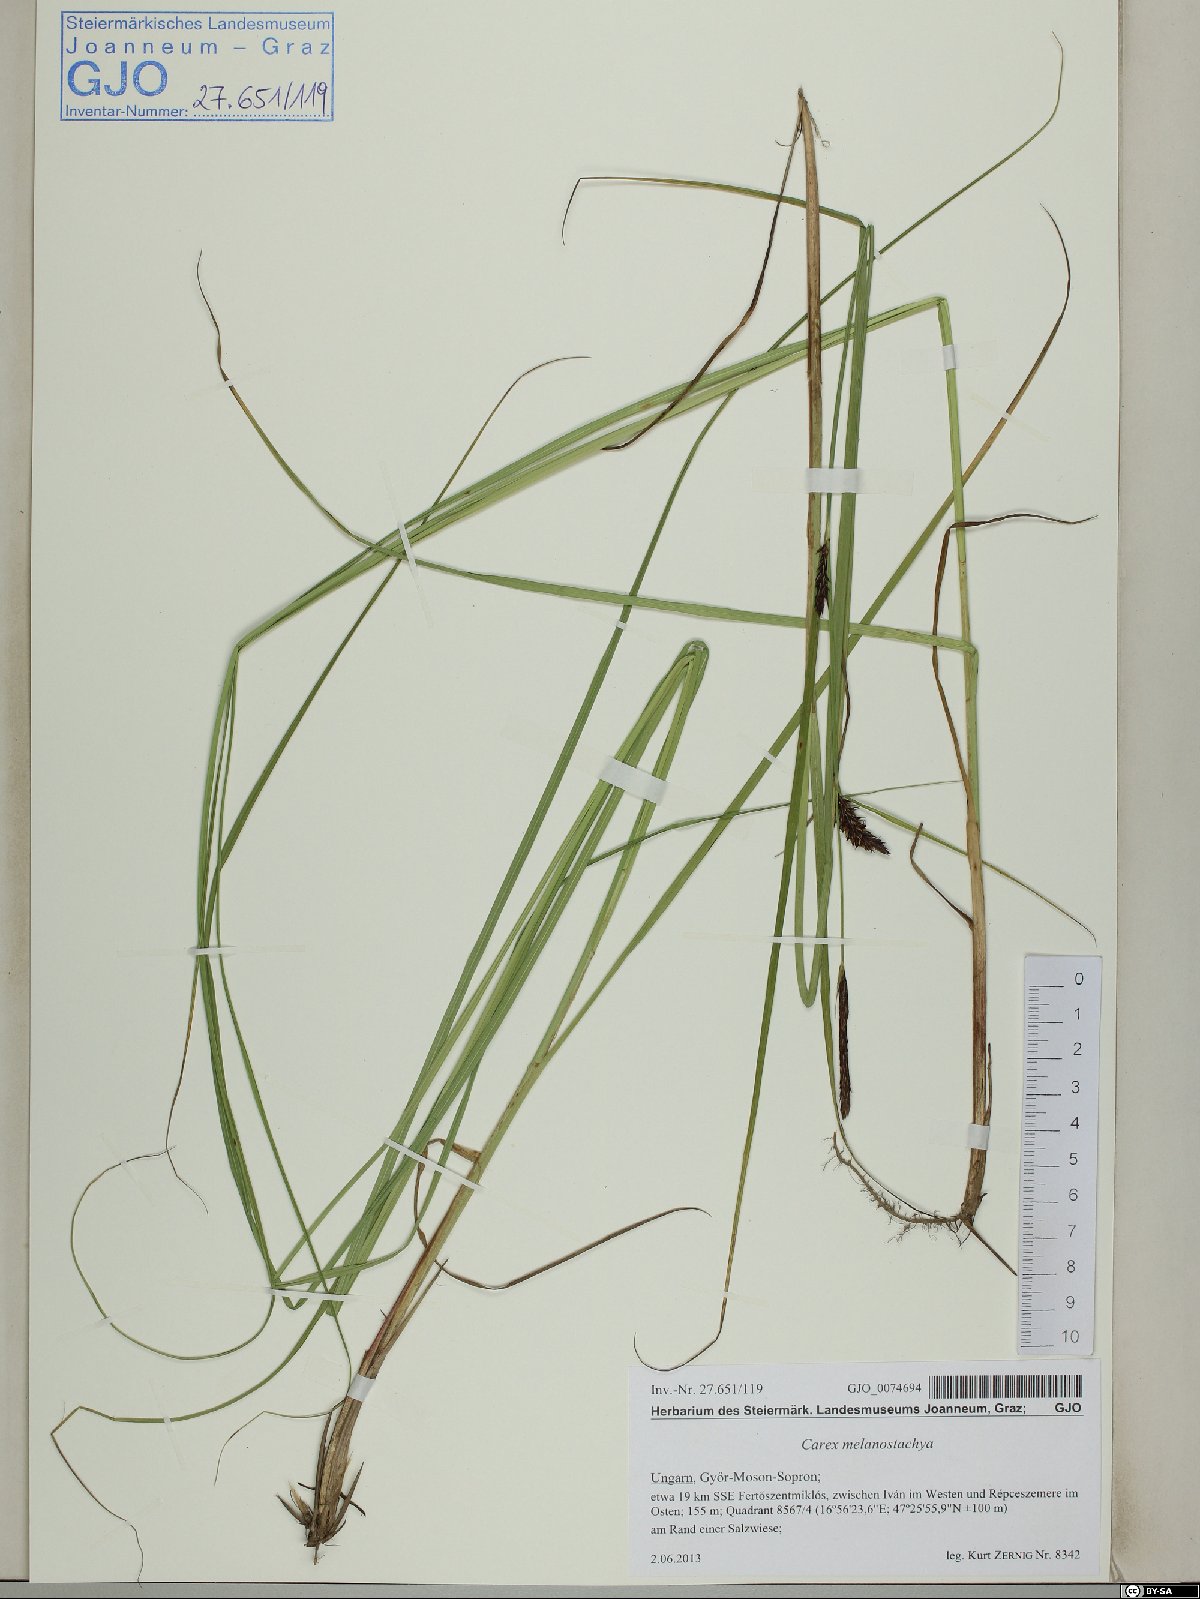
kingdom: Plantae
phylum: Tracheophyta
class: Liliopsida
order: Poales
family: Cyperaceae
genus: Carex
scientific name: Carex melanostachya
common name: Black-spiked sedge
